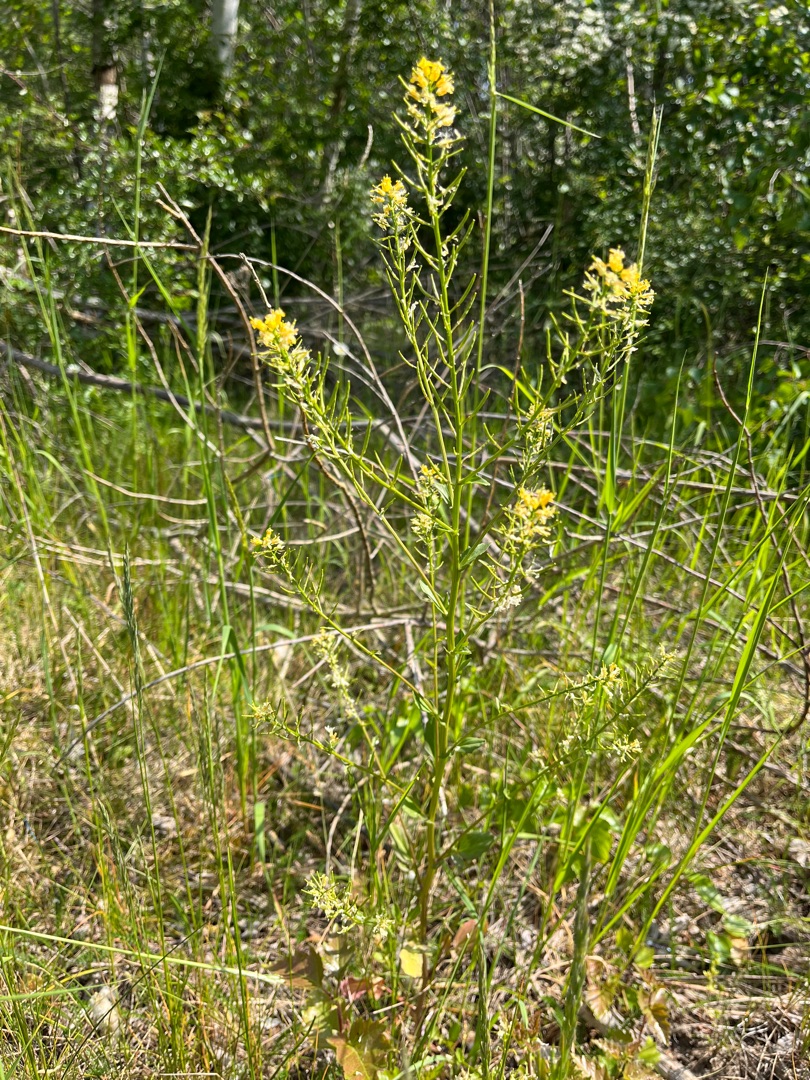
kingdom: Plantae
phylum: Tracheophyta
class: Magnoliopsida
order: Brassicales
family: Brassicaceae
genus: Barbarea
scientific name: Barbarea vulgaris
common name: Udspærret vinterkarse
